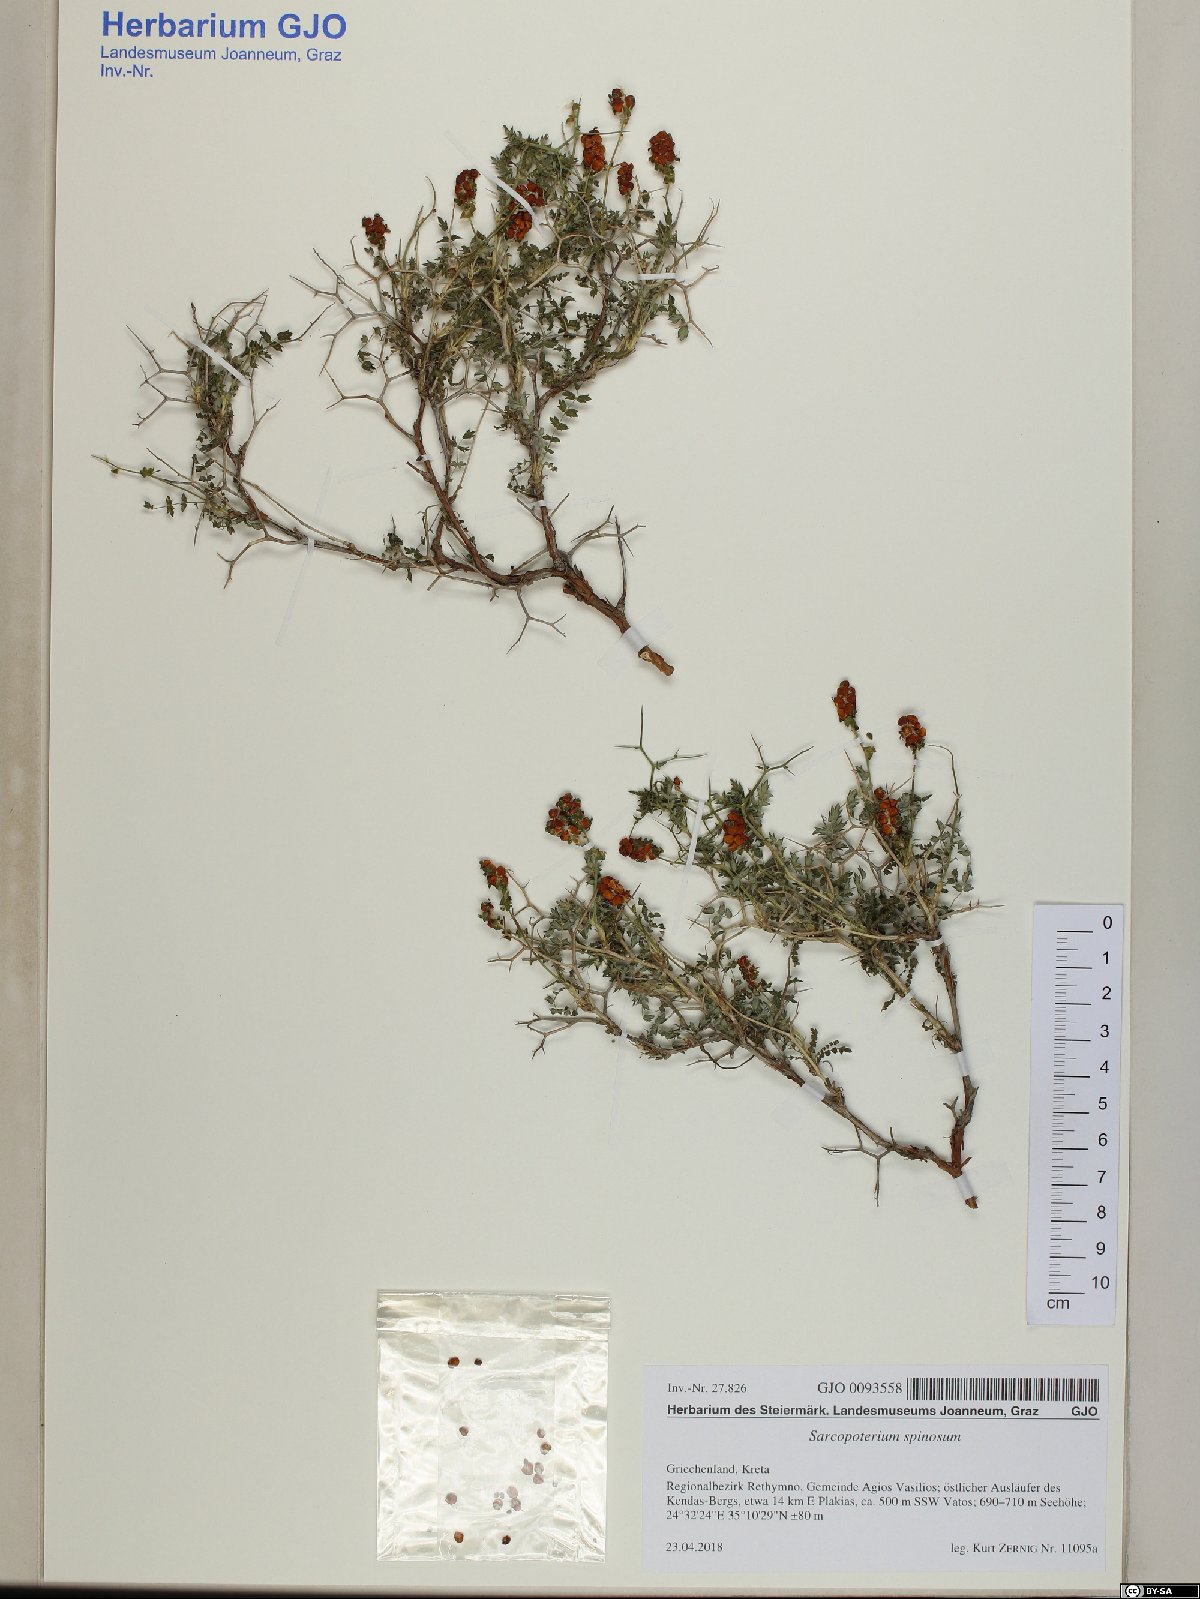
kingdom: Plantae
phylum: Tracheophyta
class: Magnoliopsida
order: Rosales
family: Rosaceae
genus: Sarcopoterium
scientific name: Sarcopoterium spinosum
